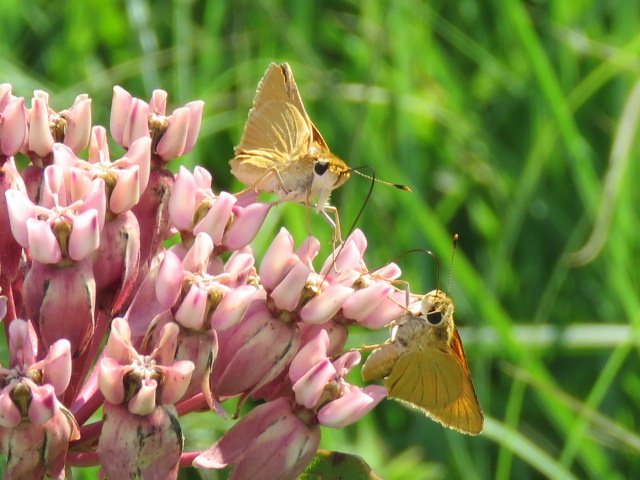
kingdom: Animalia
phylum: Arthropoda
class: Insecta
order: Lepidoptera
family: Hesperiidae
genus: Atrytone
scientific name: Atrytone delaware
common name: Delaware Skipper
